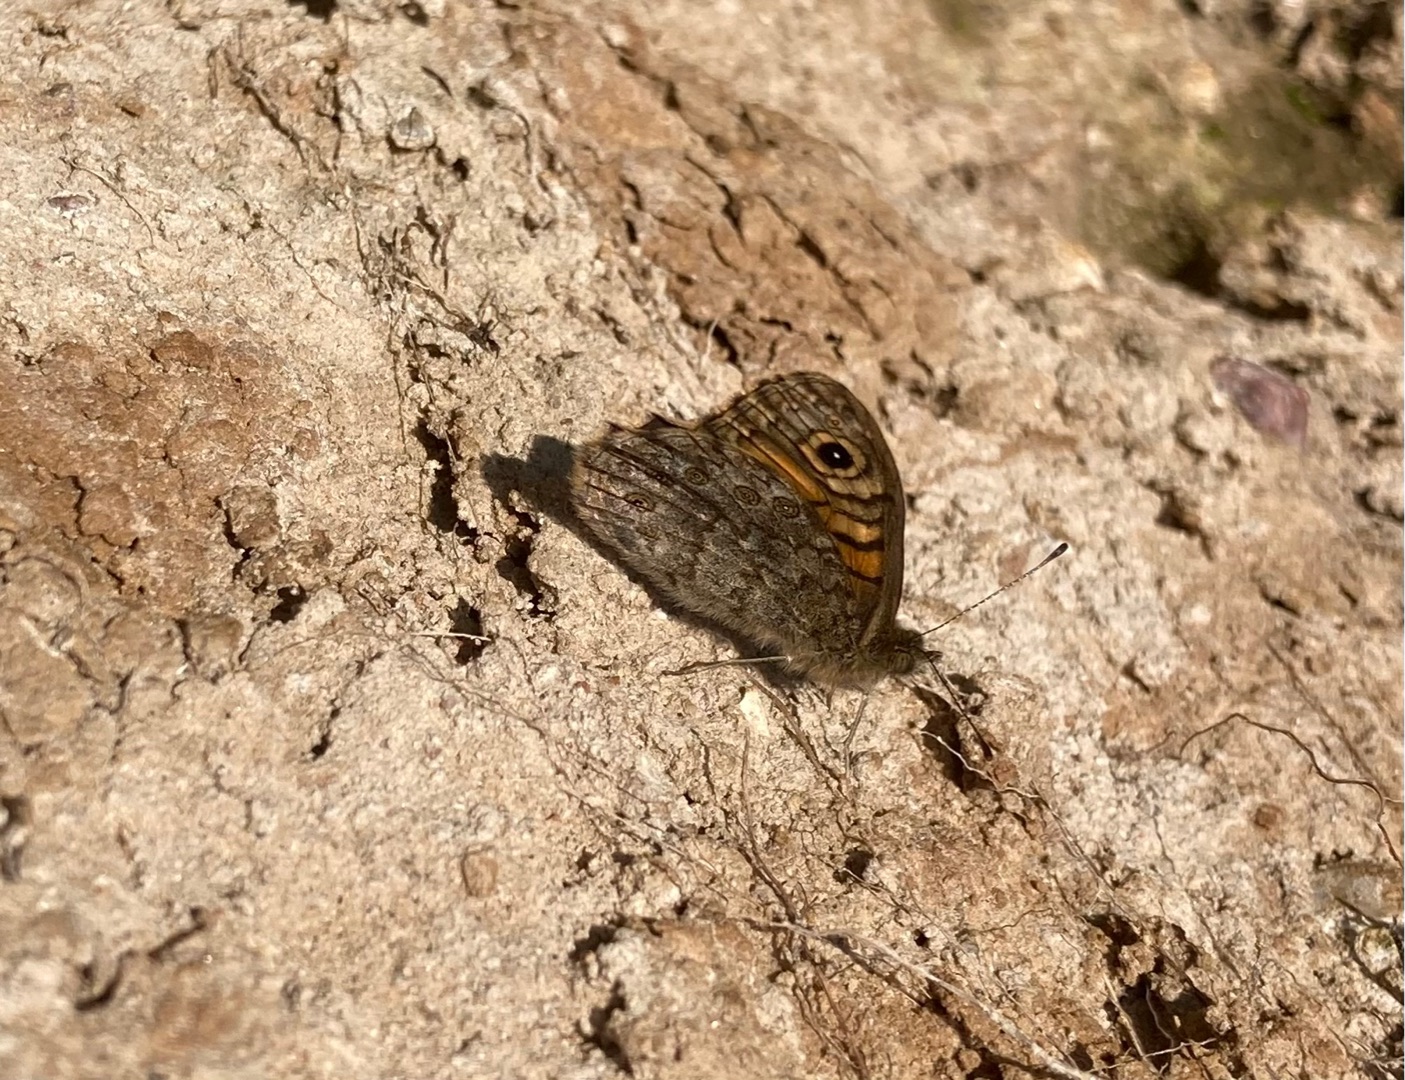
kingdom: Animalia
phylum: Arthropoda
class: Insecta
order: Lepidoptera
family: Nymphalidae
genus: Pararge
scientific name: Pararge Lasiommata megera
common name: Vejrandøje
